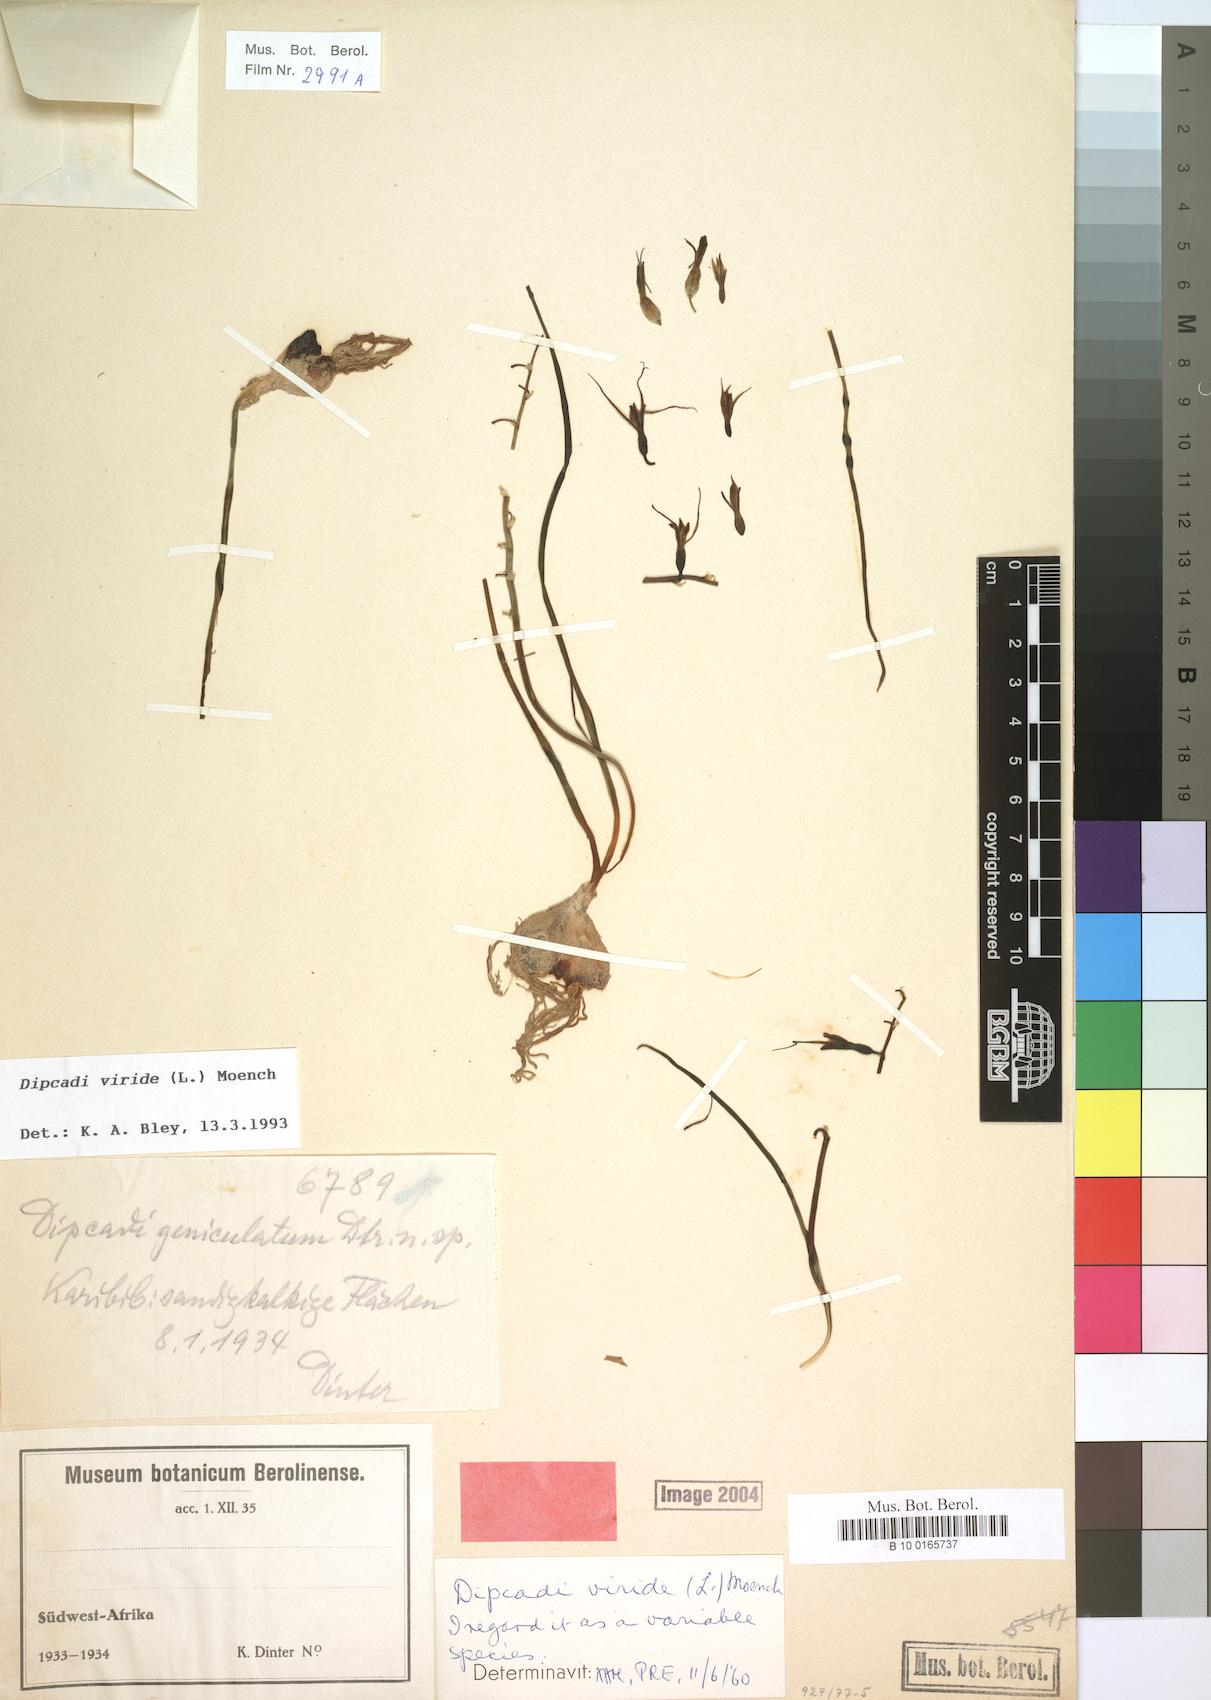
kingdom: Plantae
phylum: Tracheophyta
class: Liliopsida
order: Asparagales
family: Asparagaceae
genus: Dipcadi
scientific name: Dipcadi viride
